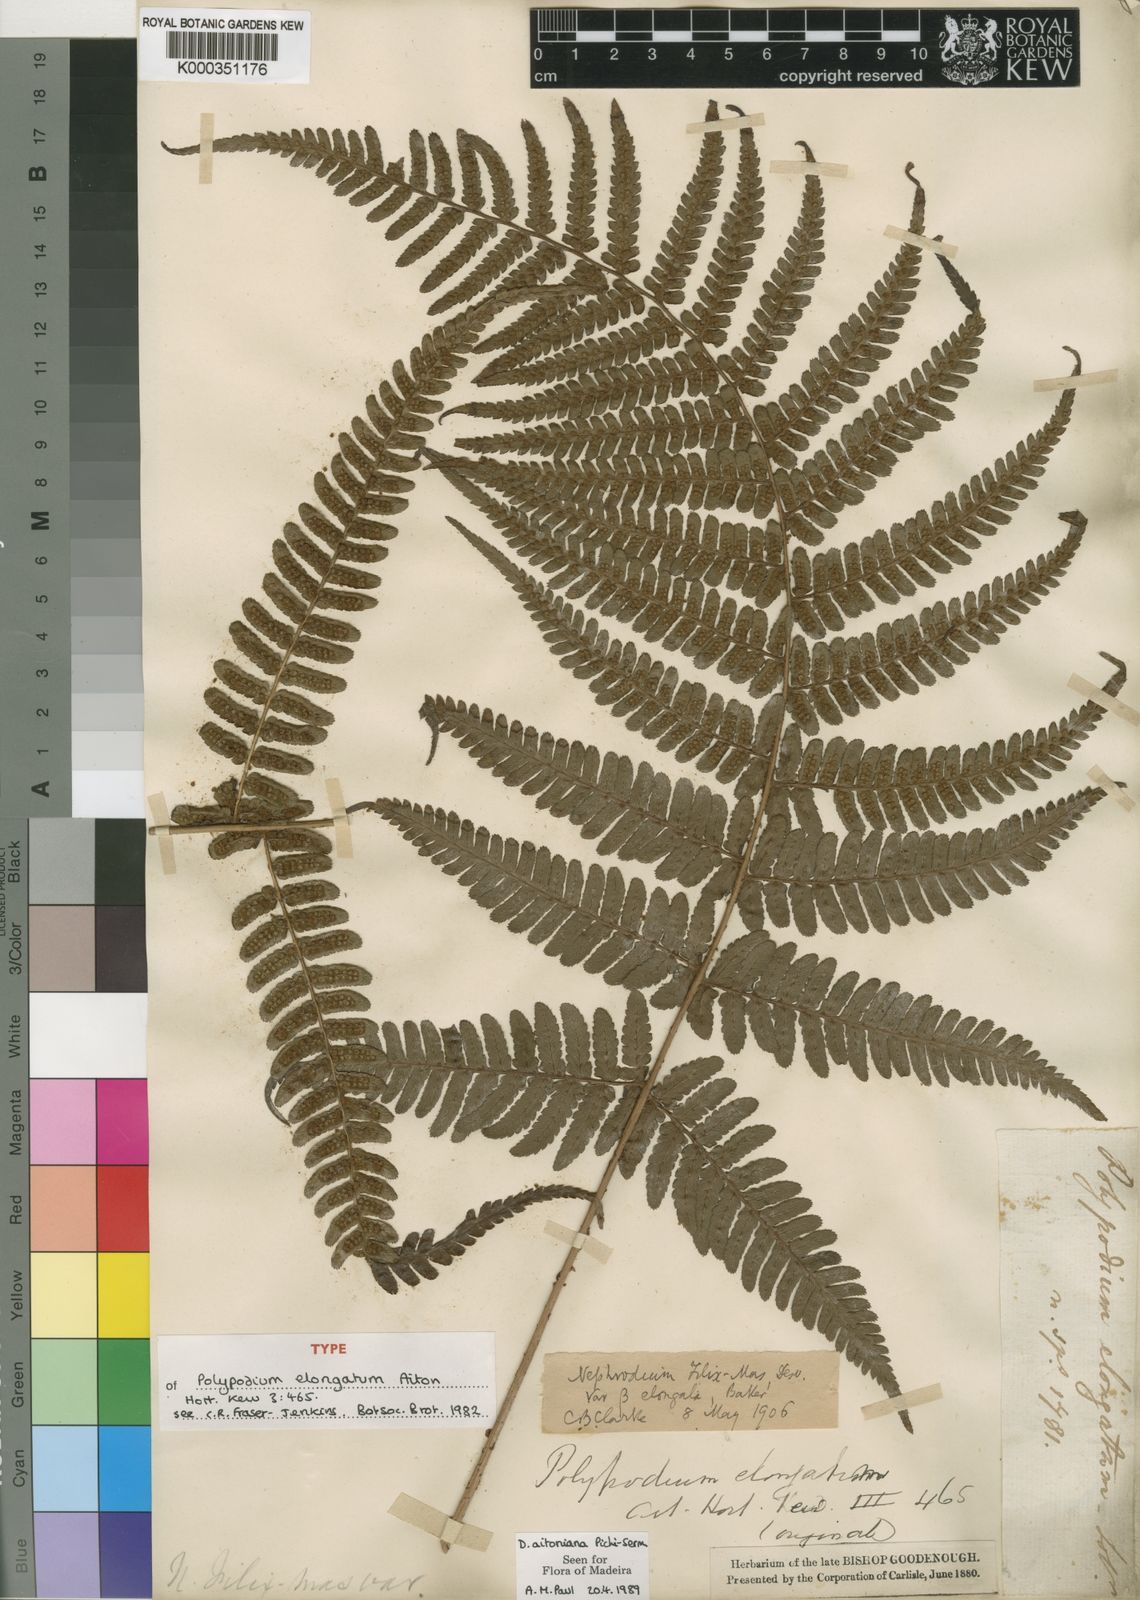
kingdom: Plantae
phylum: Tracheophyta
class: Polypodiopsida
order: Polypodiales
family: Dryopteridaceae
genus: Dryopteris
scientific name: Dryopteris aitoniana
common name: Aiton's buckler-fern
